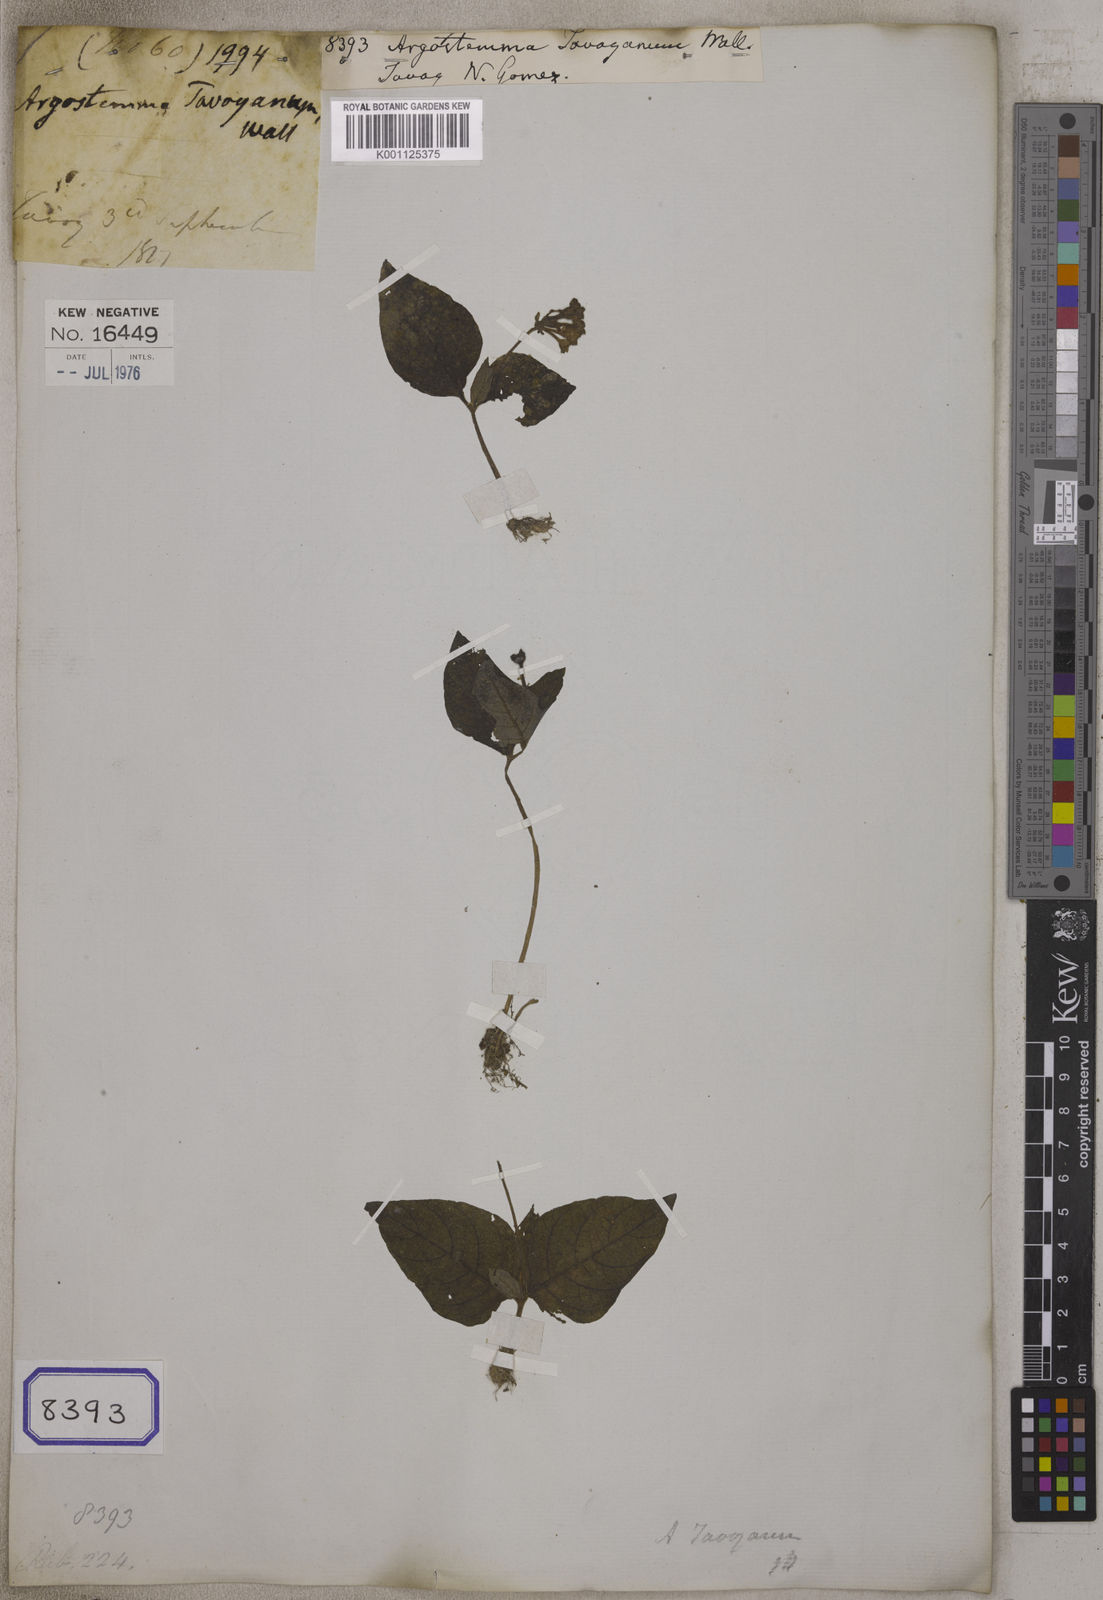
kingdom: Plantae
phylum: Tracheophyta
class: Magnoliopsida
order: Gentianales
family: Rubiaceae
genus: Argostemma
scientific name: Argostemma
